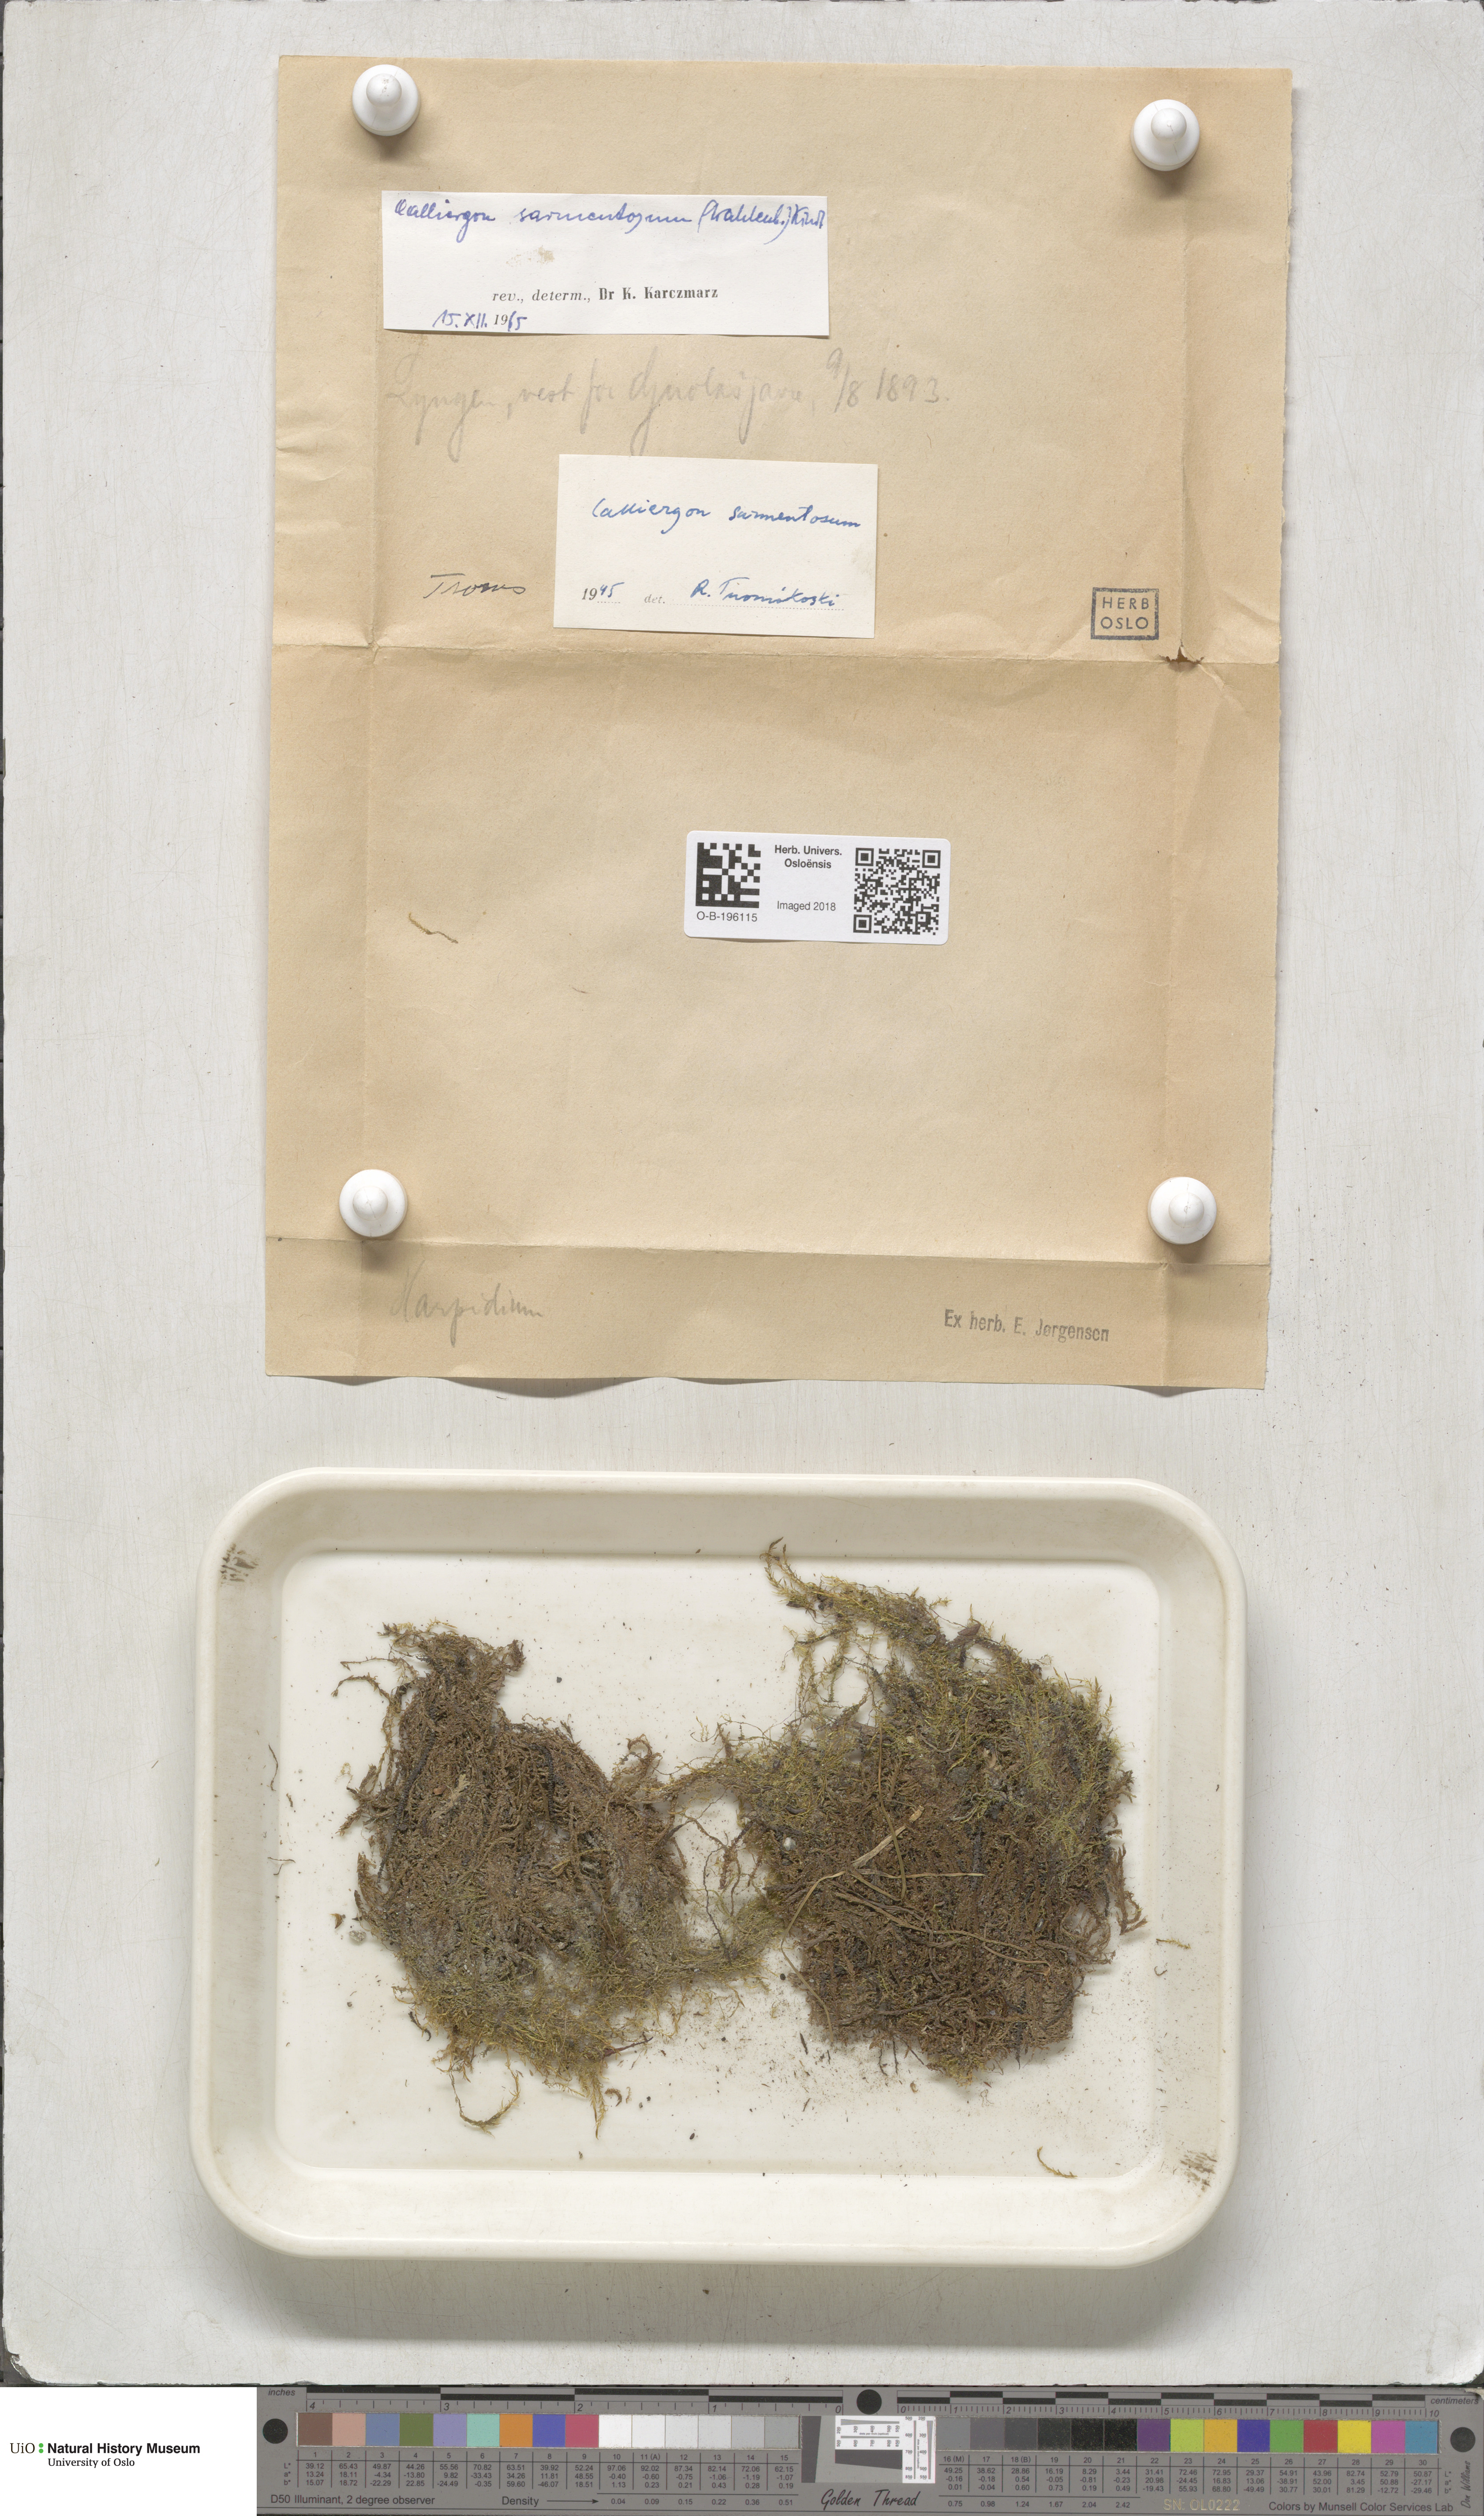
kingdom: Plantae
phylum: Bryophyta
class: Bryopsida
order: Hypnales
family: Calliergonaceae
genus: Sarmentypnum
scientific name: Sarmentypnum sarmentosum
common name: Twiggy spoon moss
